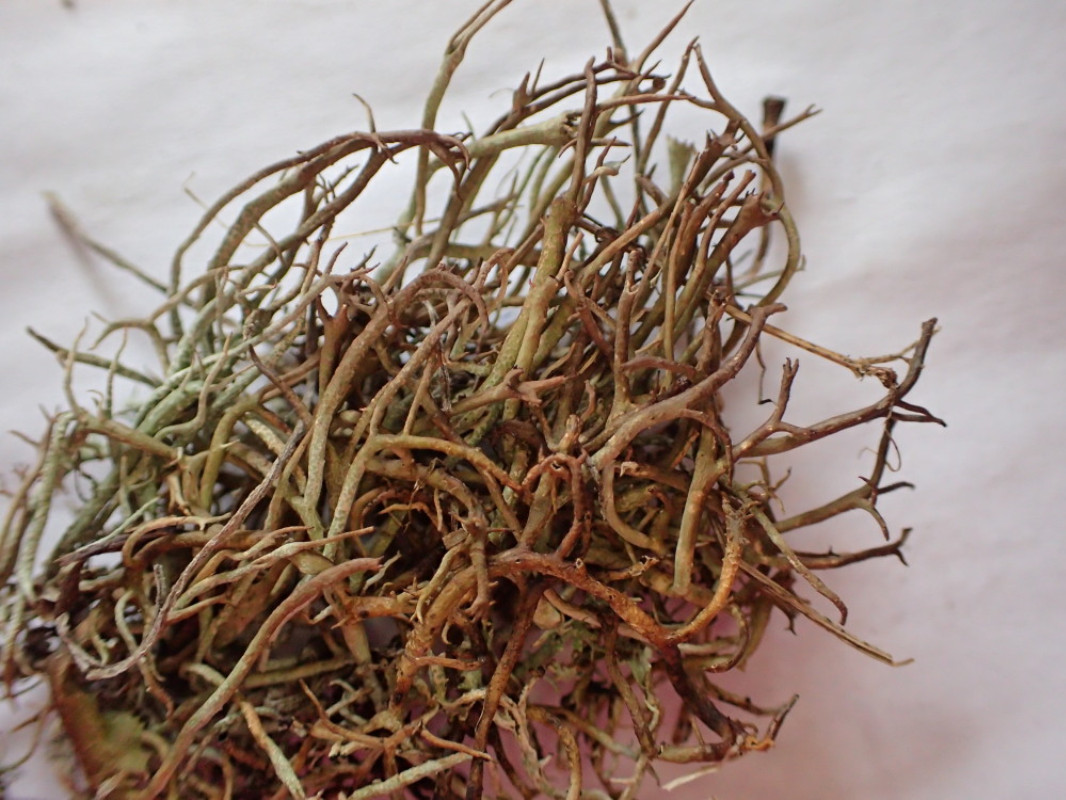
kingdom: Fungi
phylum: Ascomycota
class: Lecanoromycetes
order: Lecanorales
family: Cladoniaceae
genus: Cladonia
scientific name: Cladonia gracilis
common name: slank bægerlav
